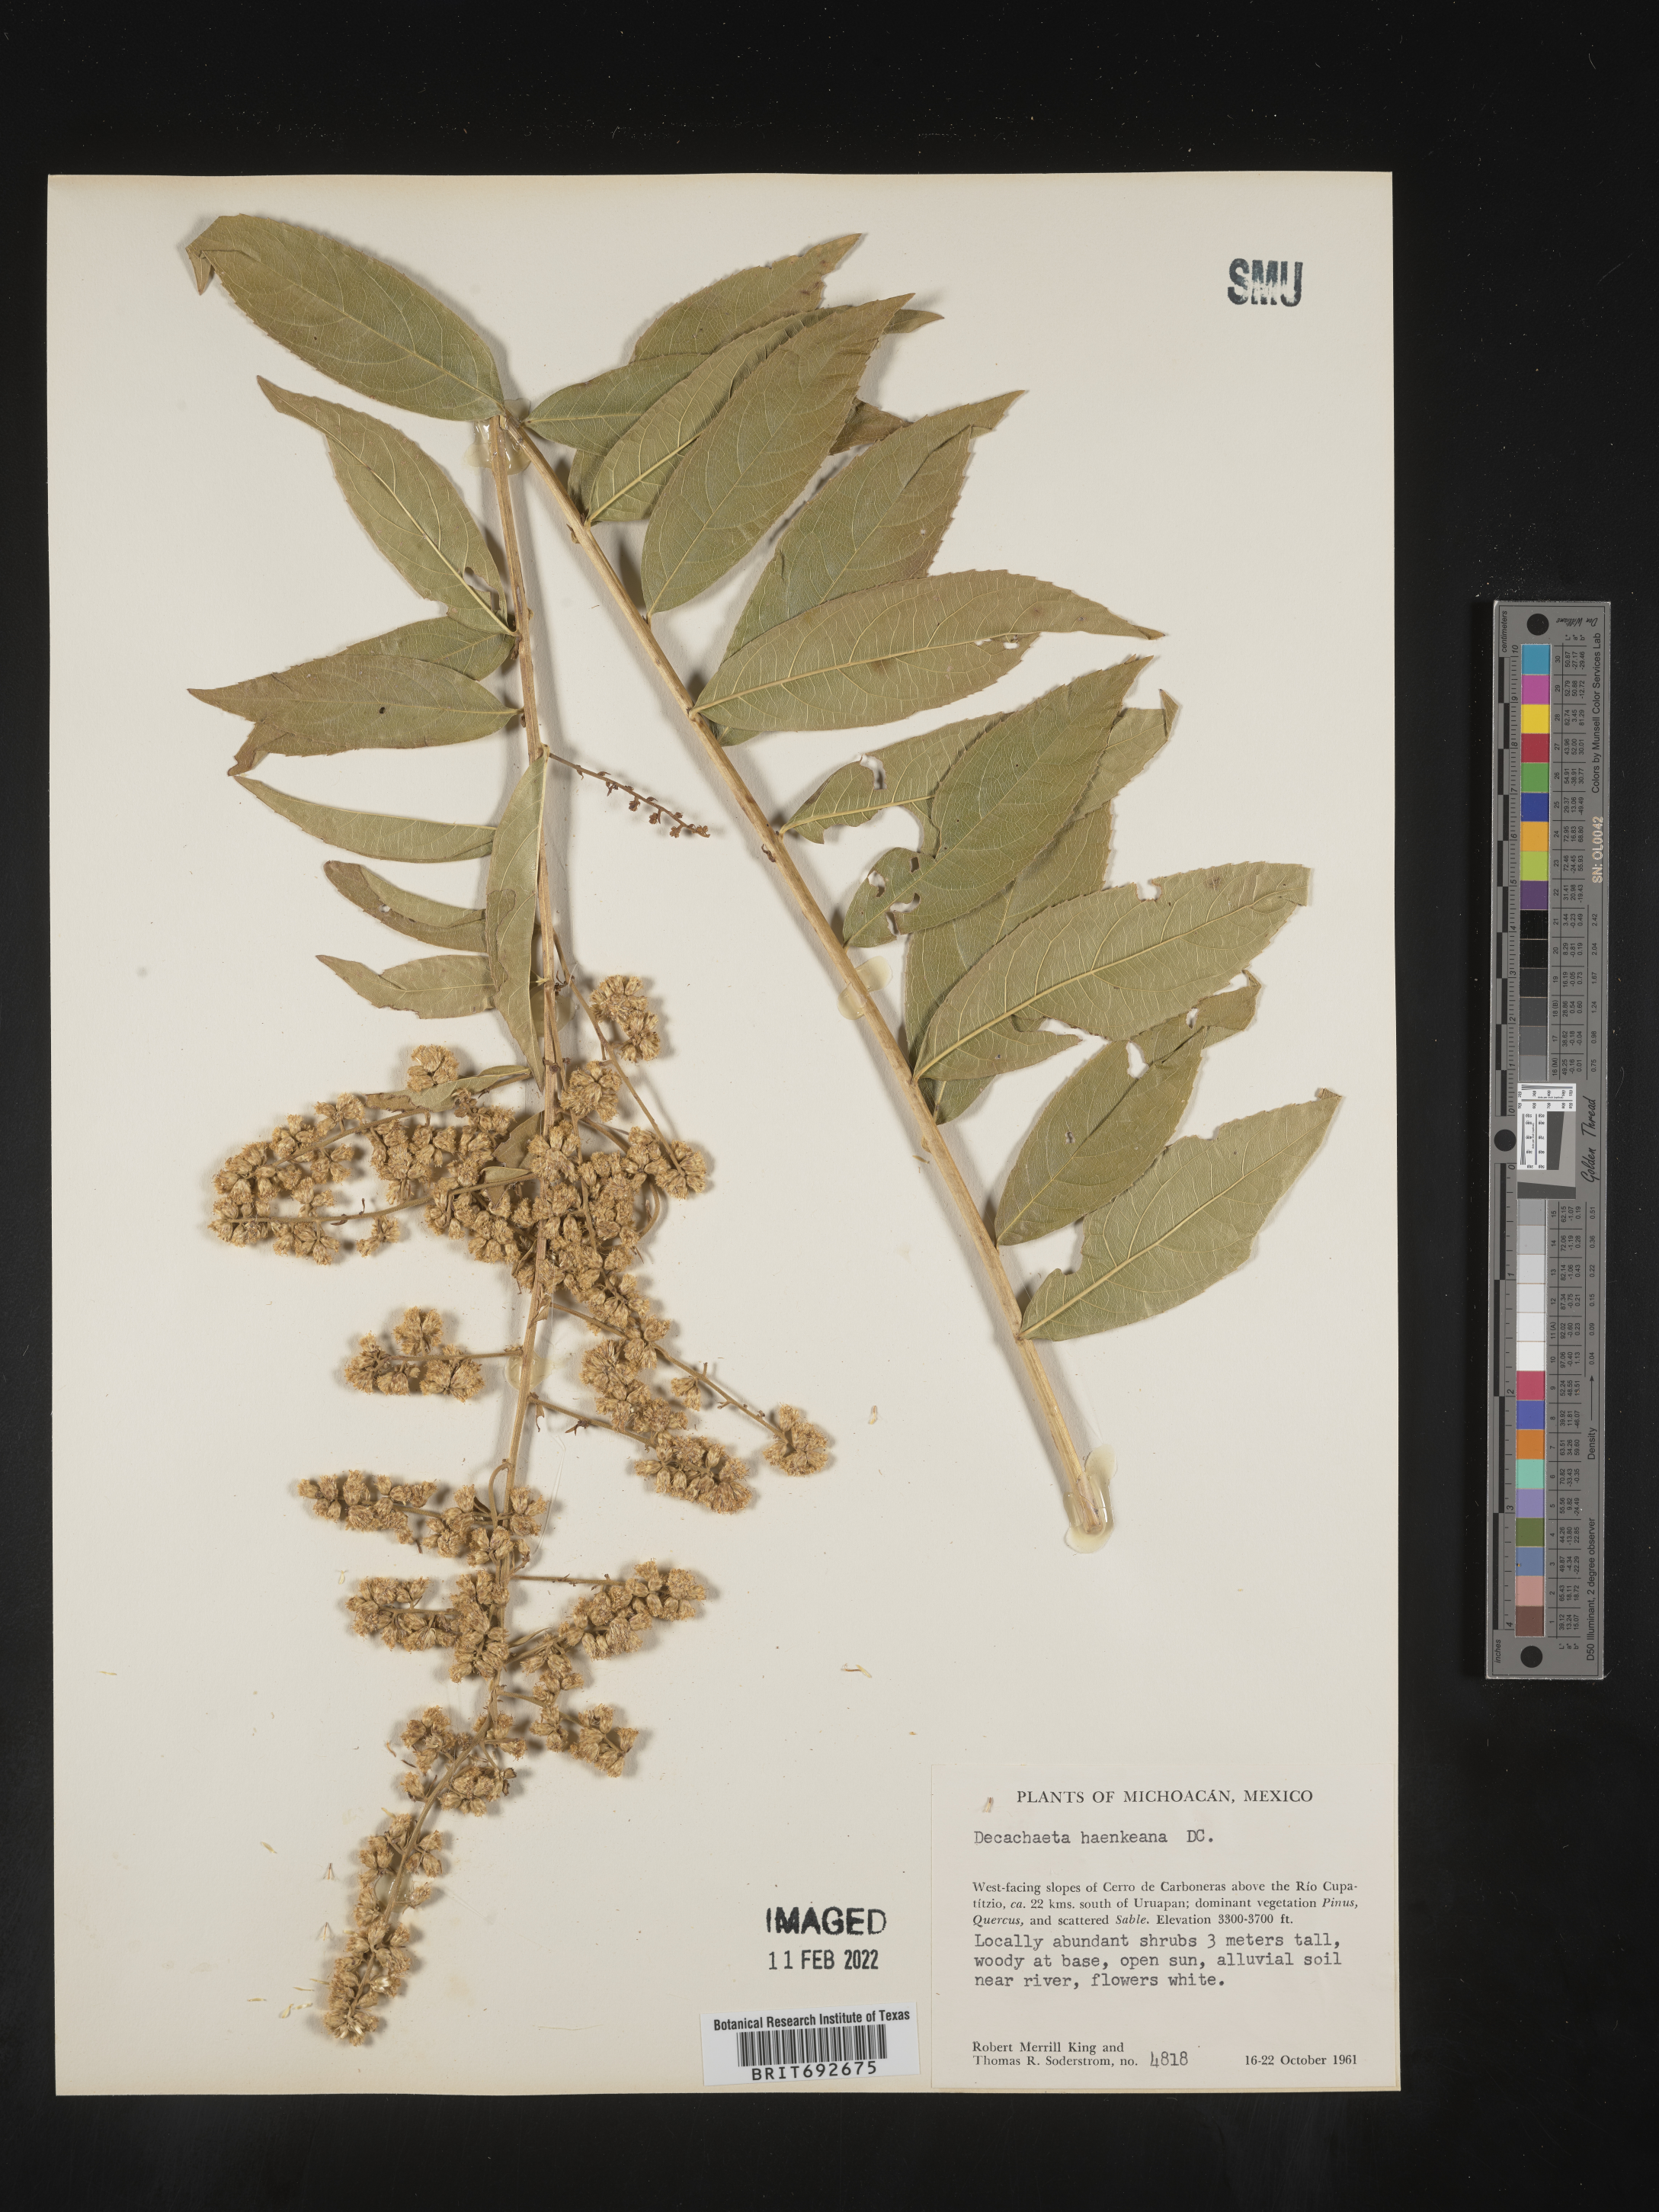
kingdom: Plantae
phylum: Tracheophyta
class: Magnoliopsida
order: Asterales
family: Asteraceae
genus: Decachaeta
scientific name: Decachaeta
